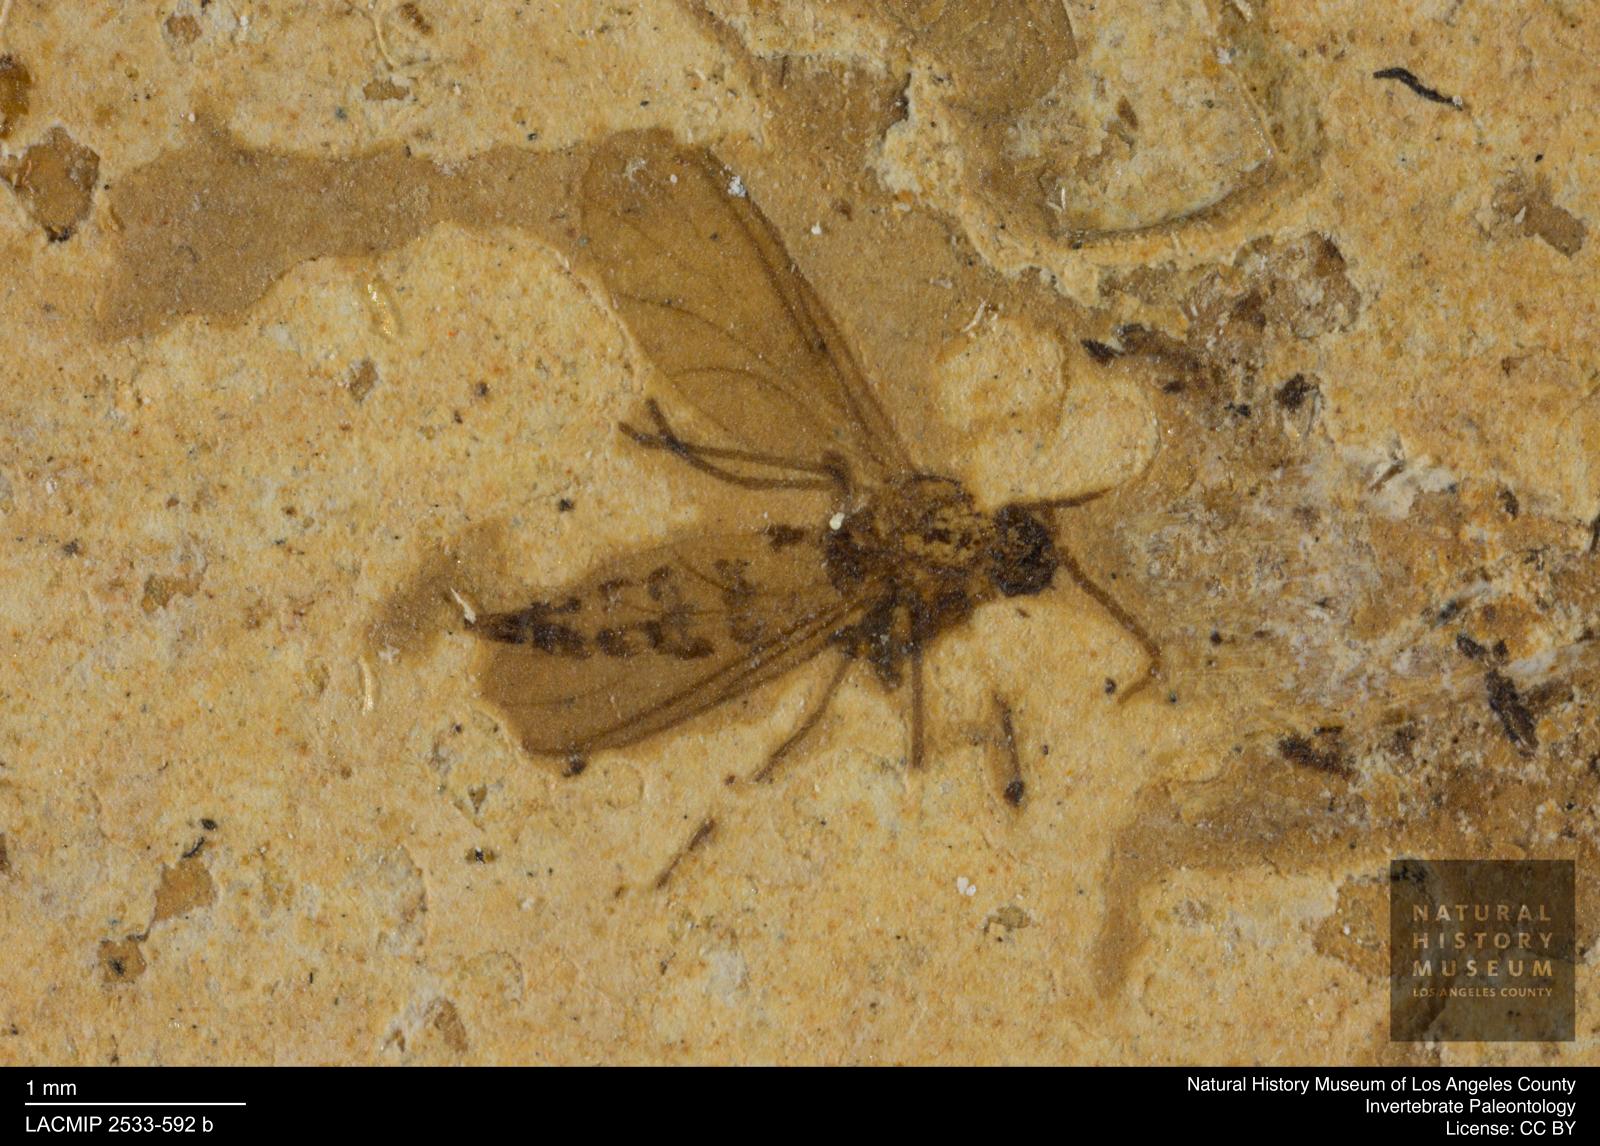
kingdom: Animalia
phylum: Arthropoda
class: Insecta
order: Diptera
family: Sciaridae
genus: Cratyna
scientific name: Cratyna atra
